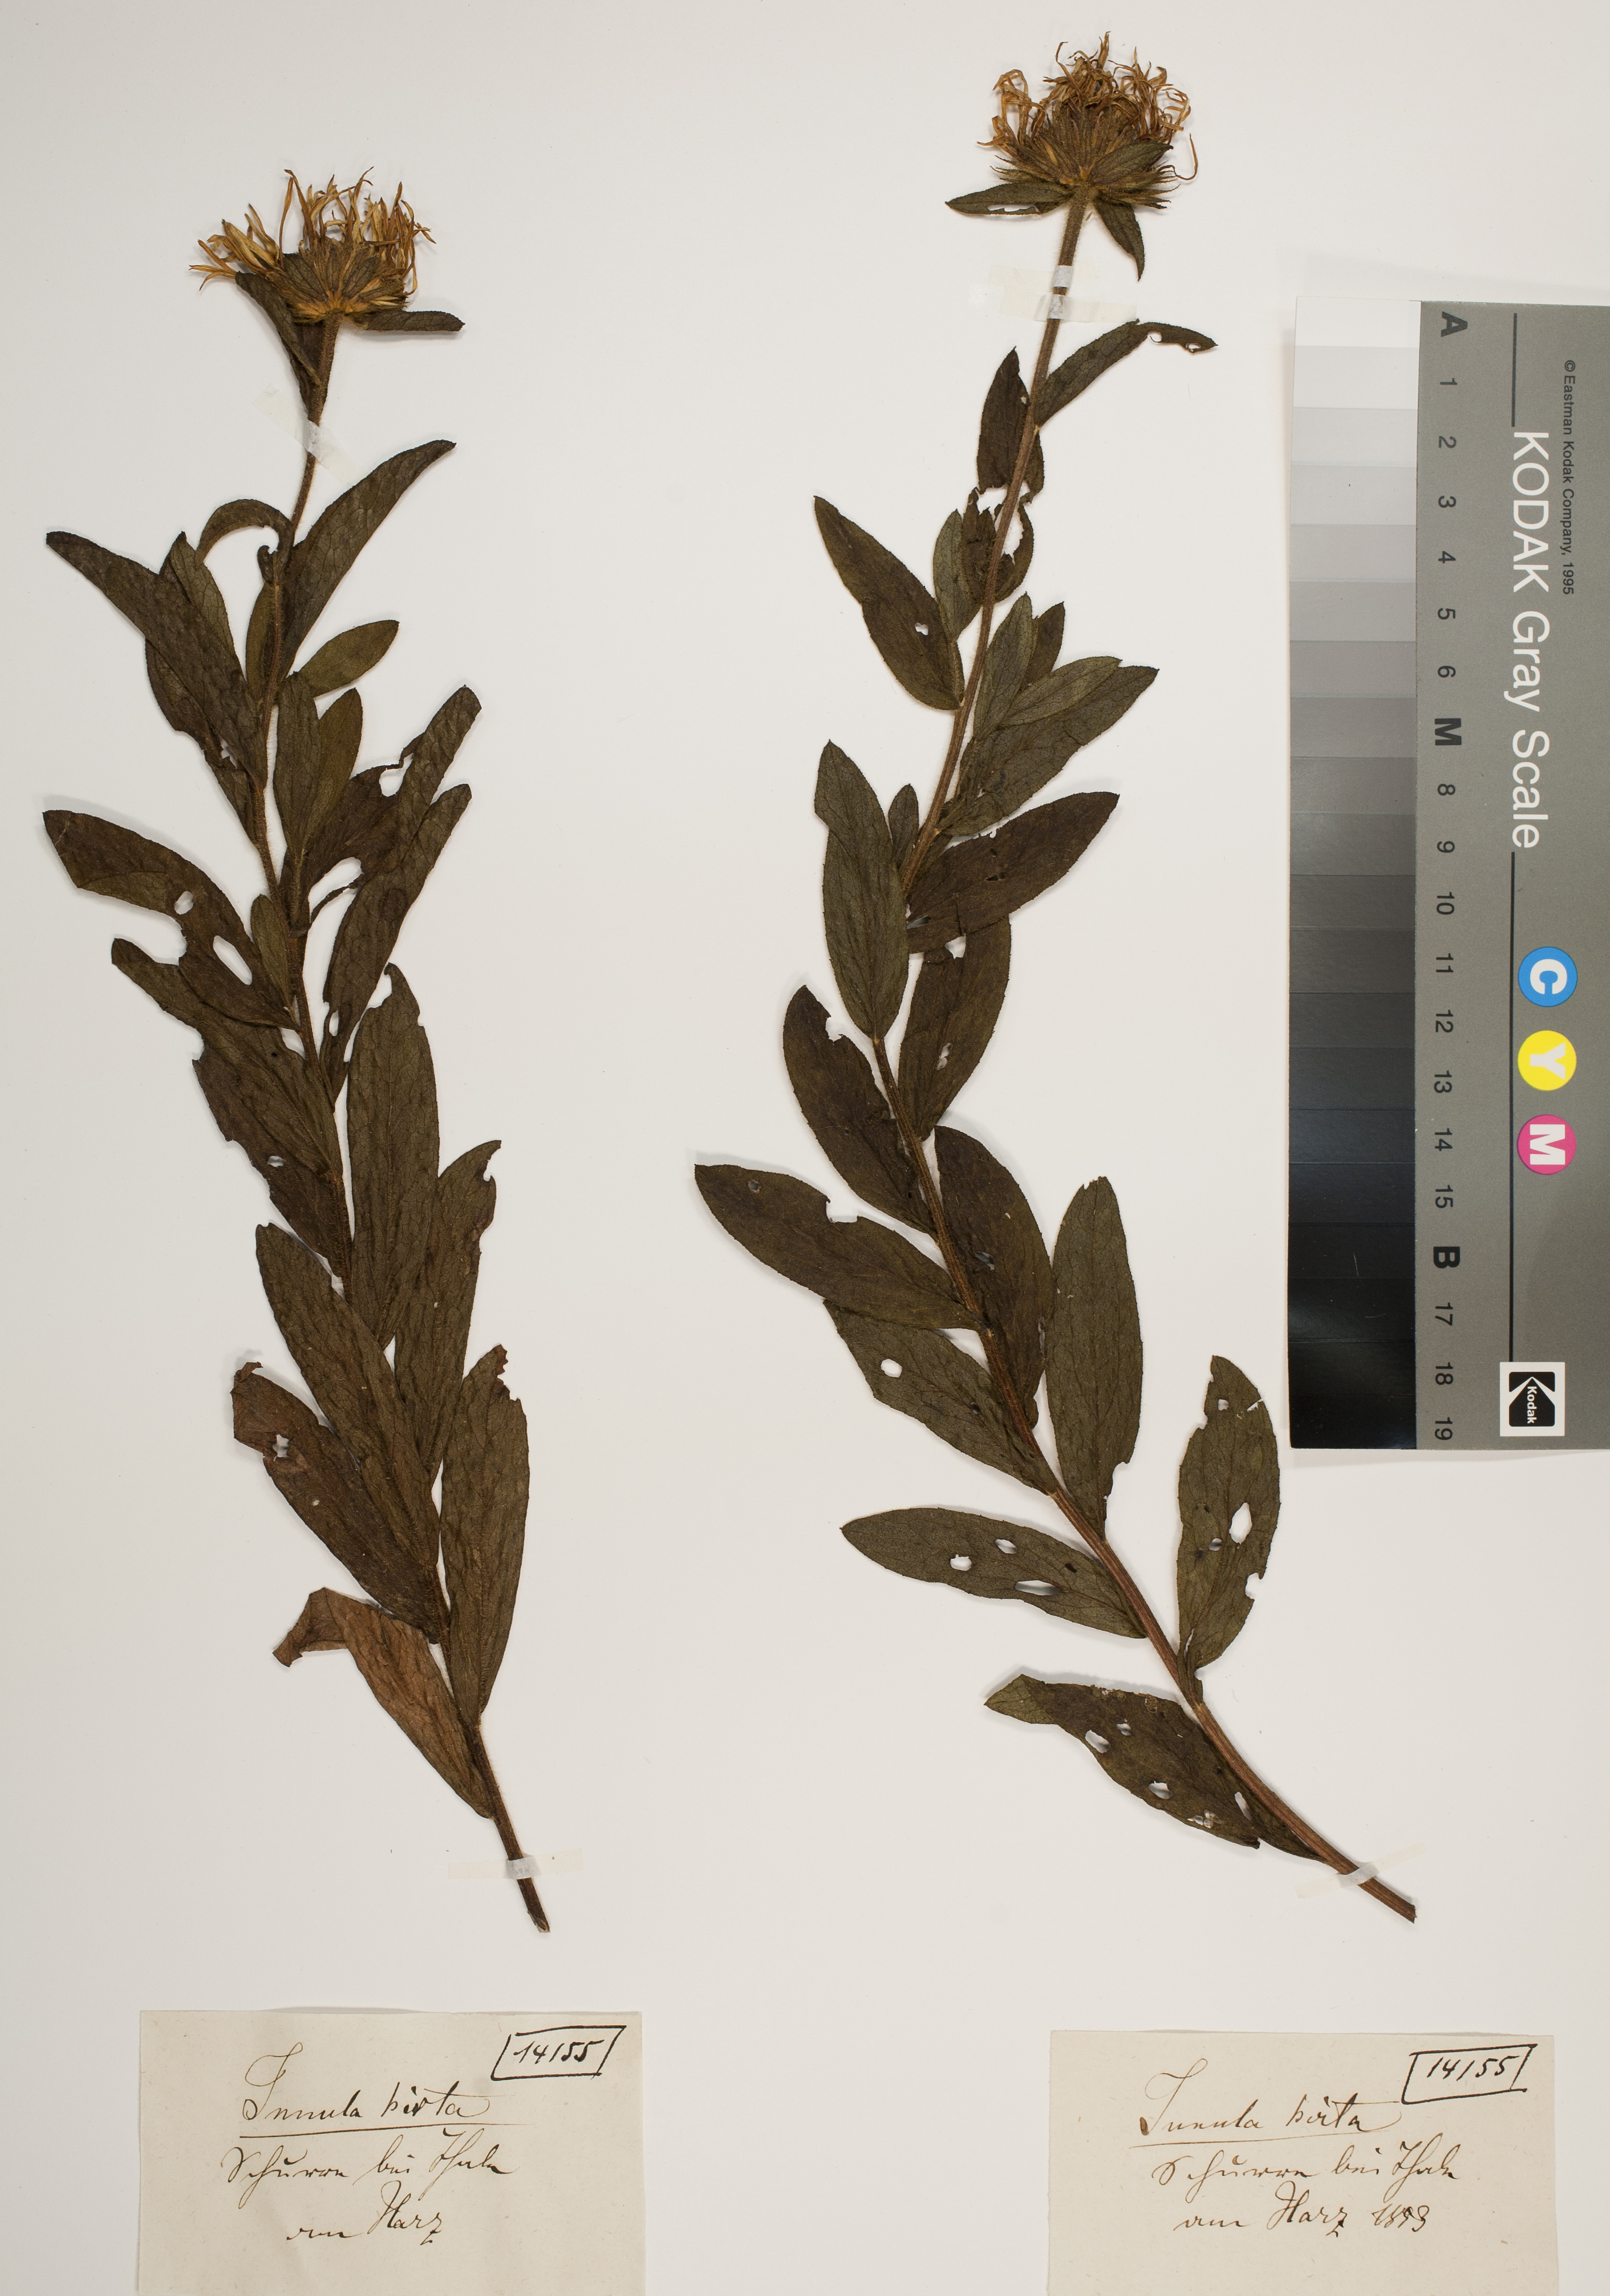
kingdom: Plantae
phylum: Tracheophyta
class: Magnoliopsida
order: Asterales
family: Asteraceae
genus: Pentanema
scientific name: Pentanema doellianum
